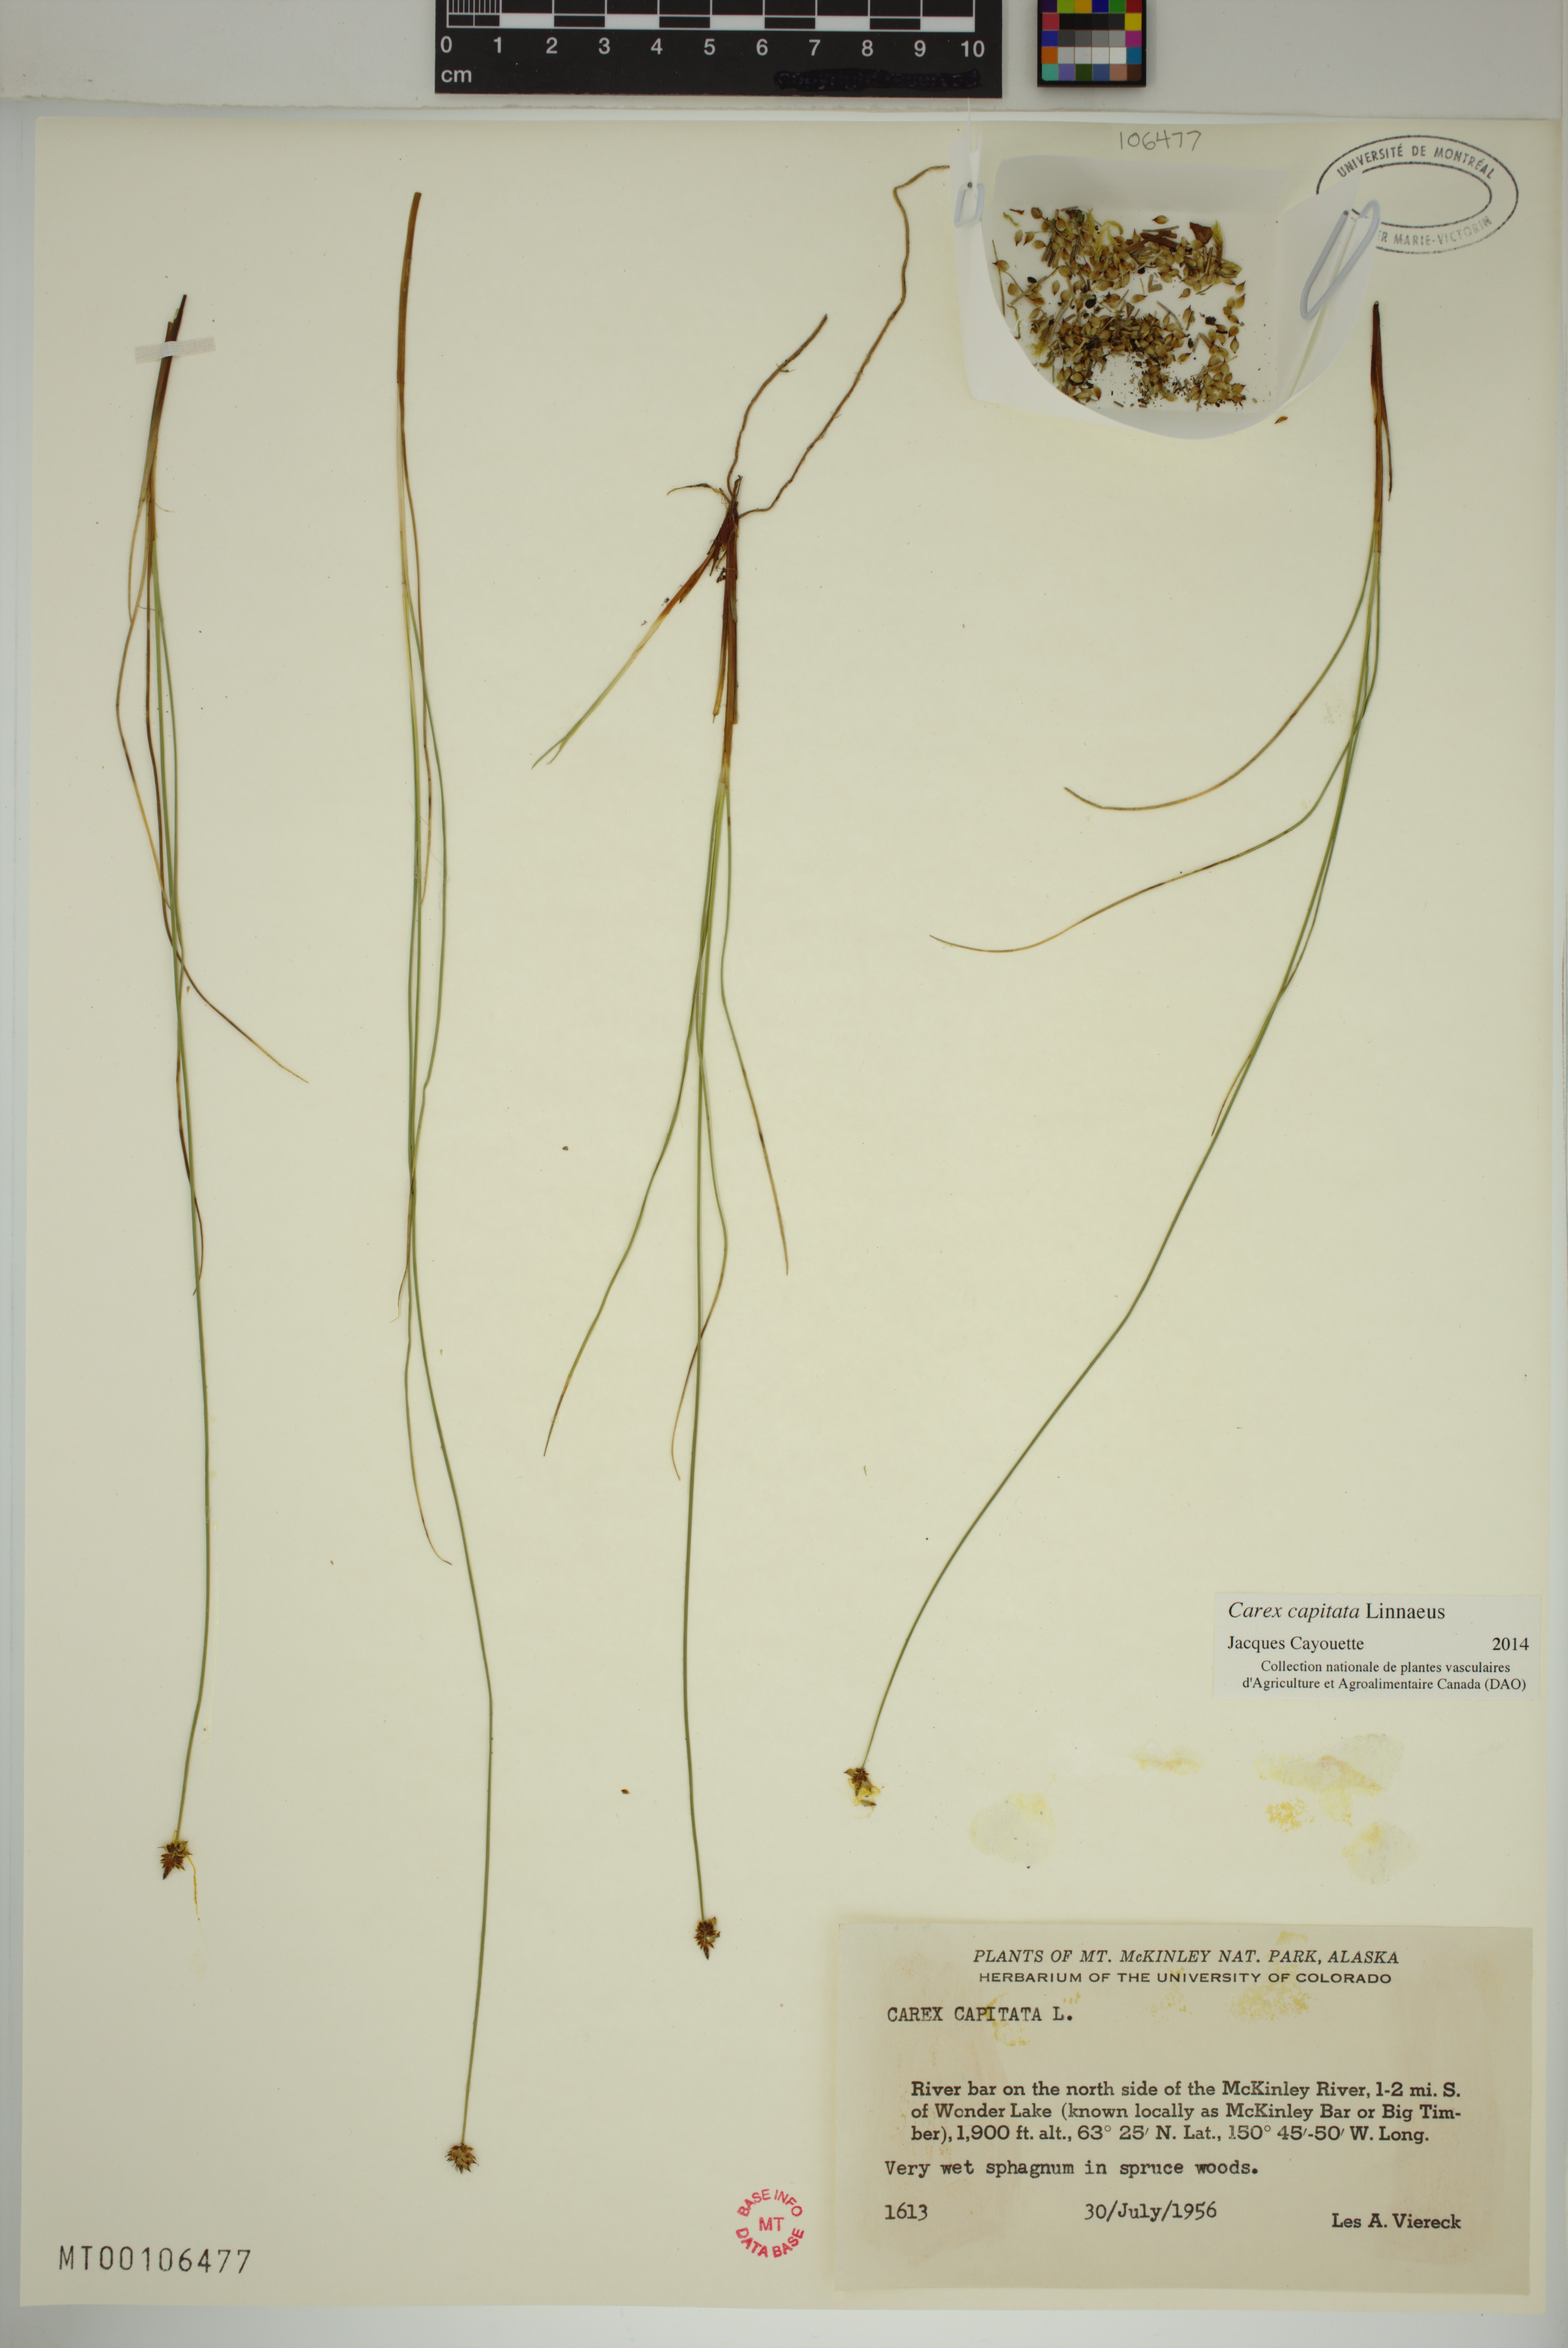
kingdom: Plantae
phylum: Tracheophyta
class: Liliopsida
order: Poales
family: Cyperaceae
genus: Carex
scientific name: Carex capitata
